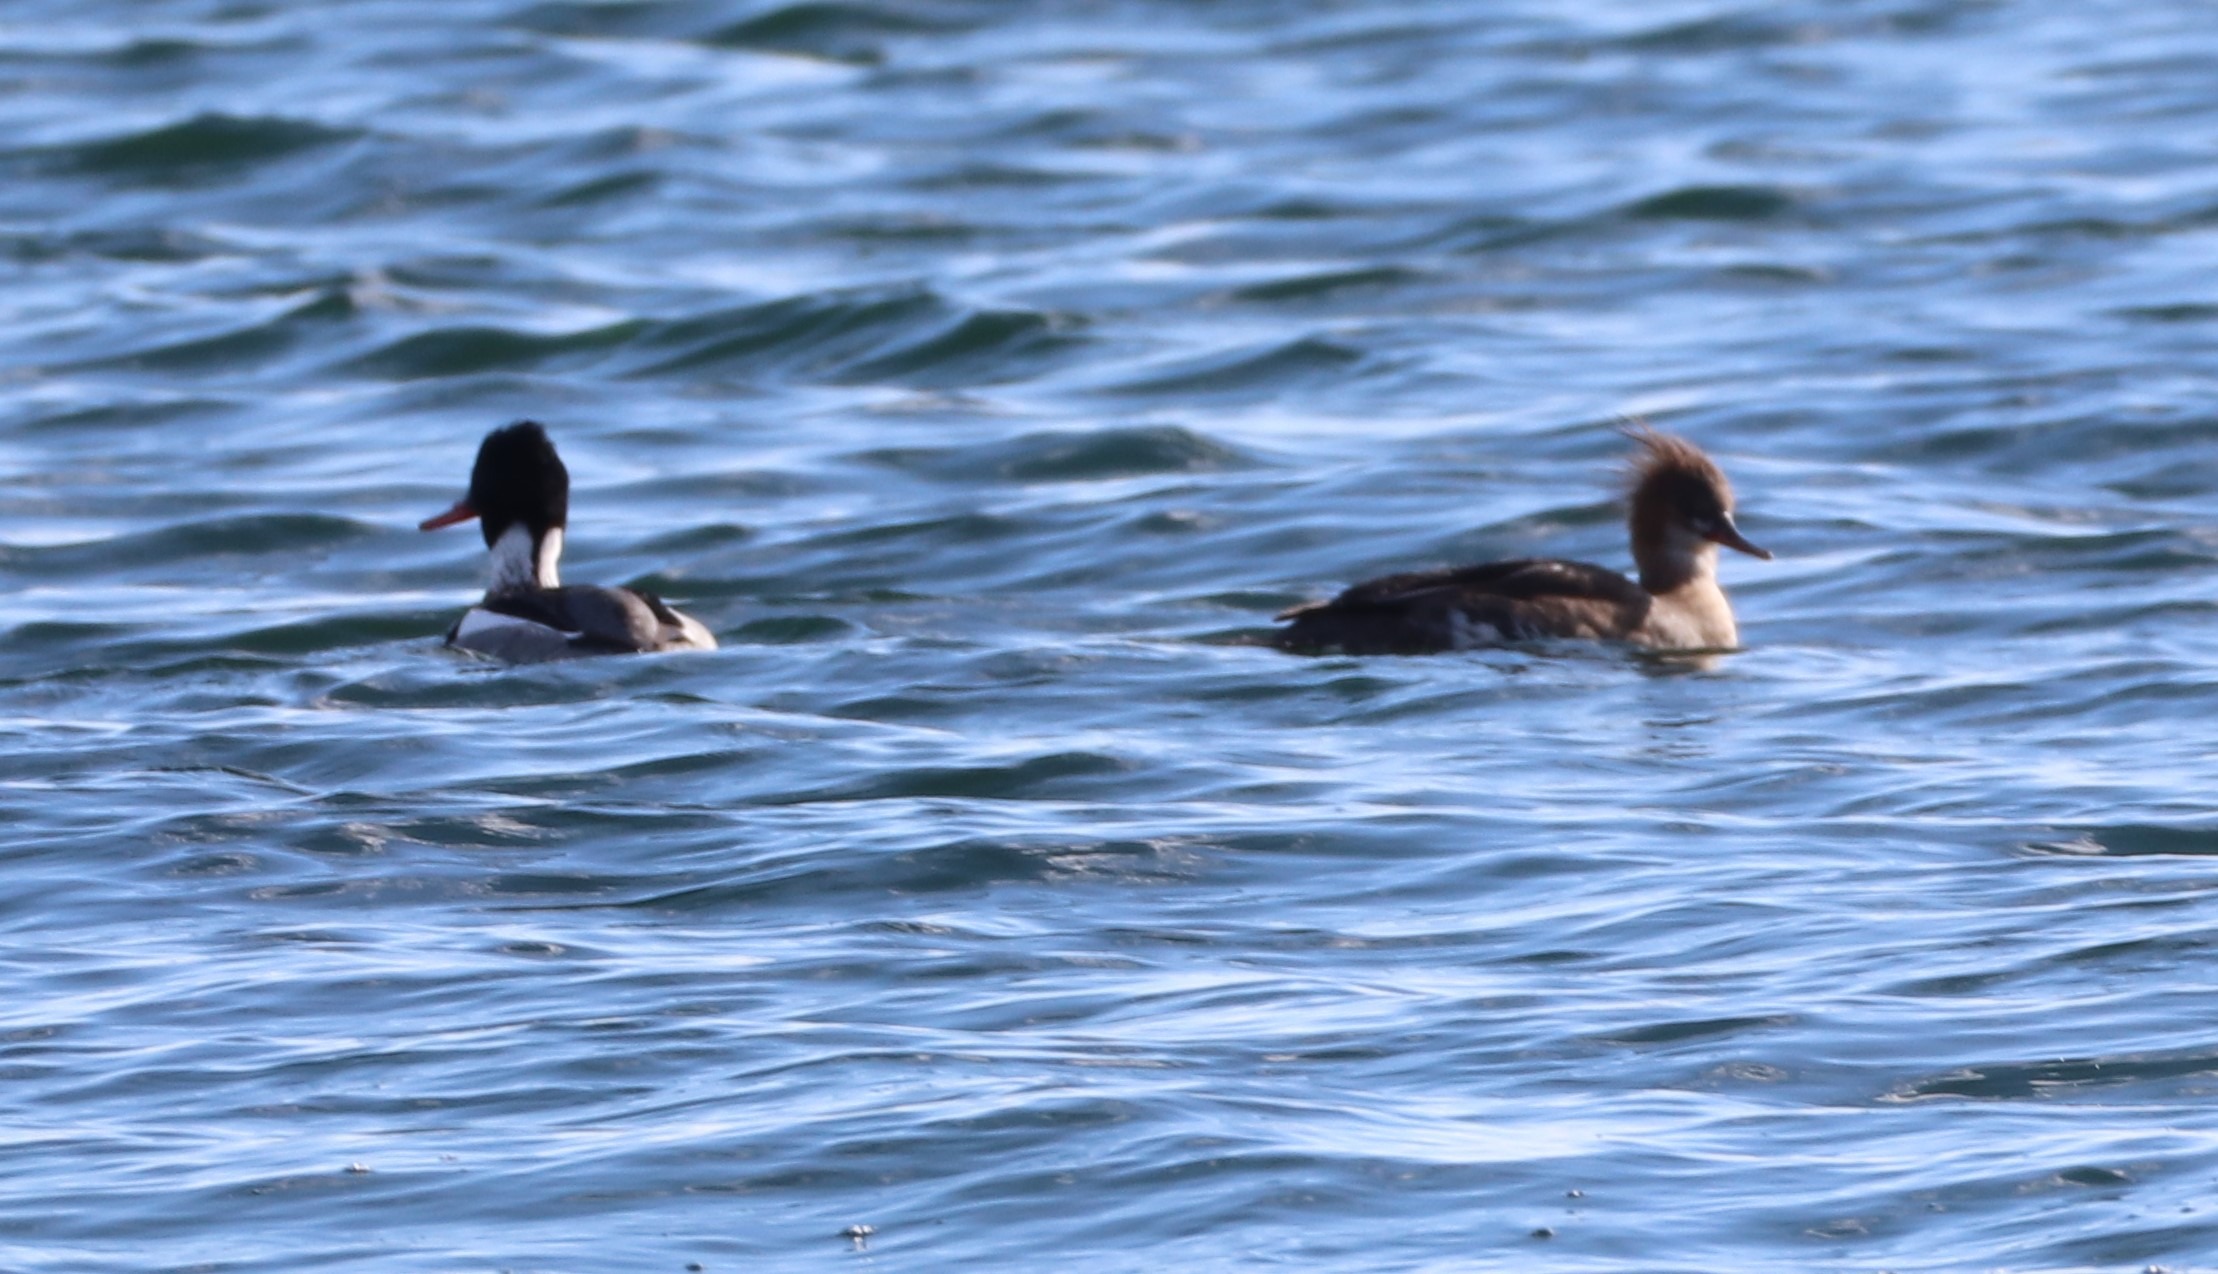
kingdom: Animalia
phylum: Chordata
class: Aves
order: Anseriformes
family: Anatidae
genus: Mergus
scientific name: Mergus serrator
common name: Toppet skallesluger
